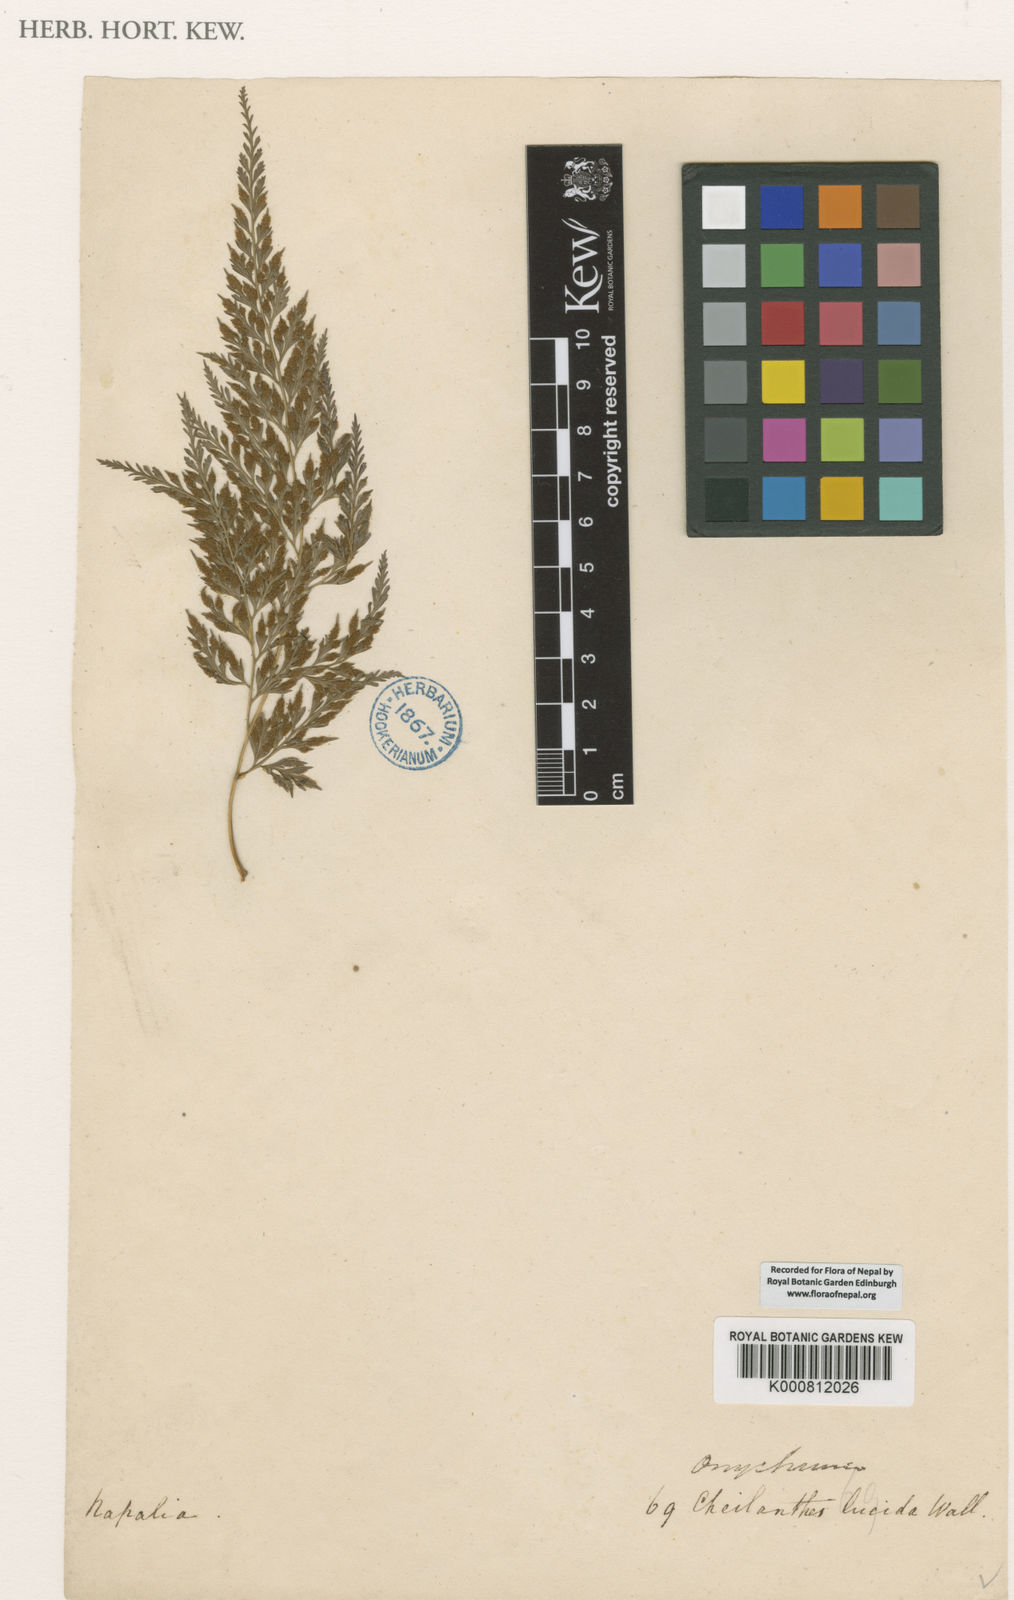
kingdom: Plantae
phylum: Tracheophyta
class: Polypodiopsida
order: Polypodiales
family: Pteridaceae
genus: Onychium
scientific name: Onychium lucidum
